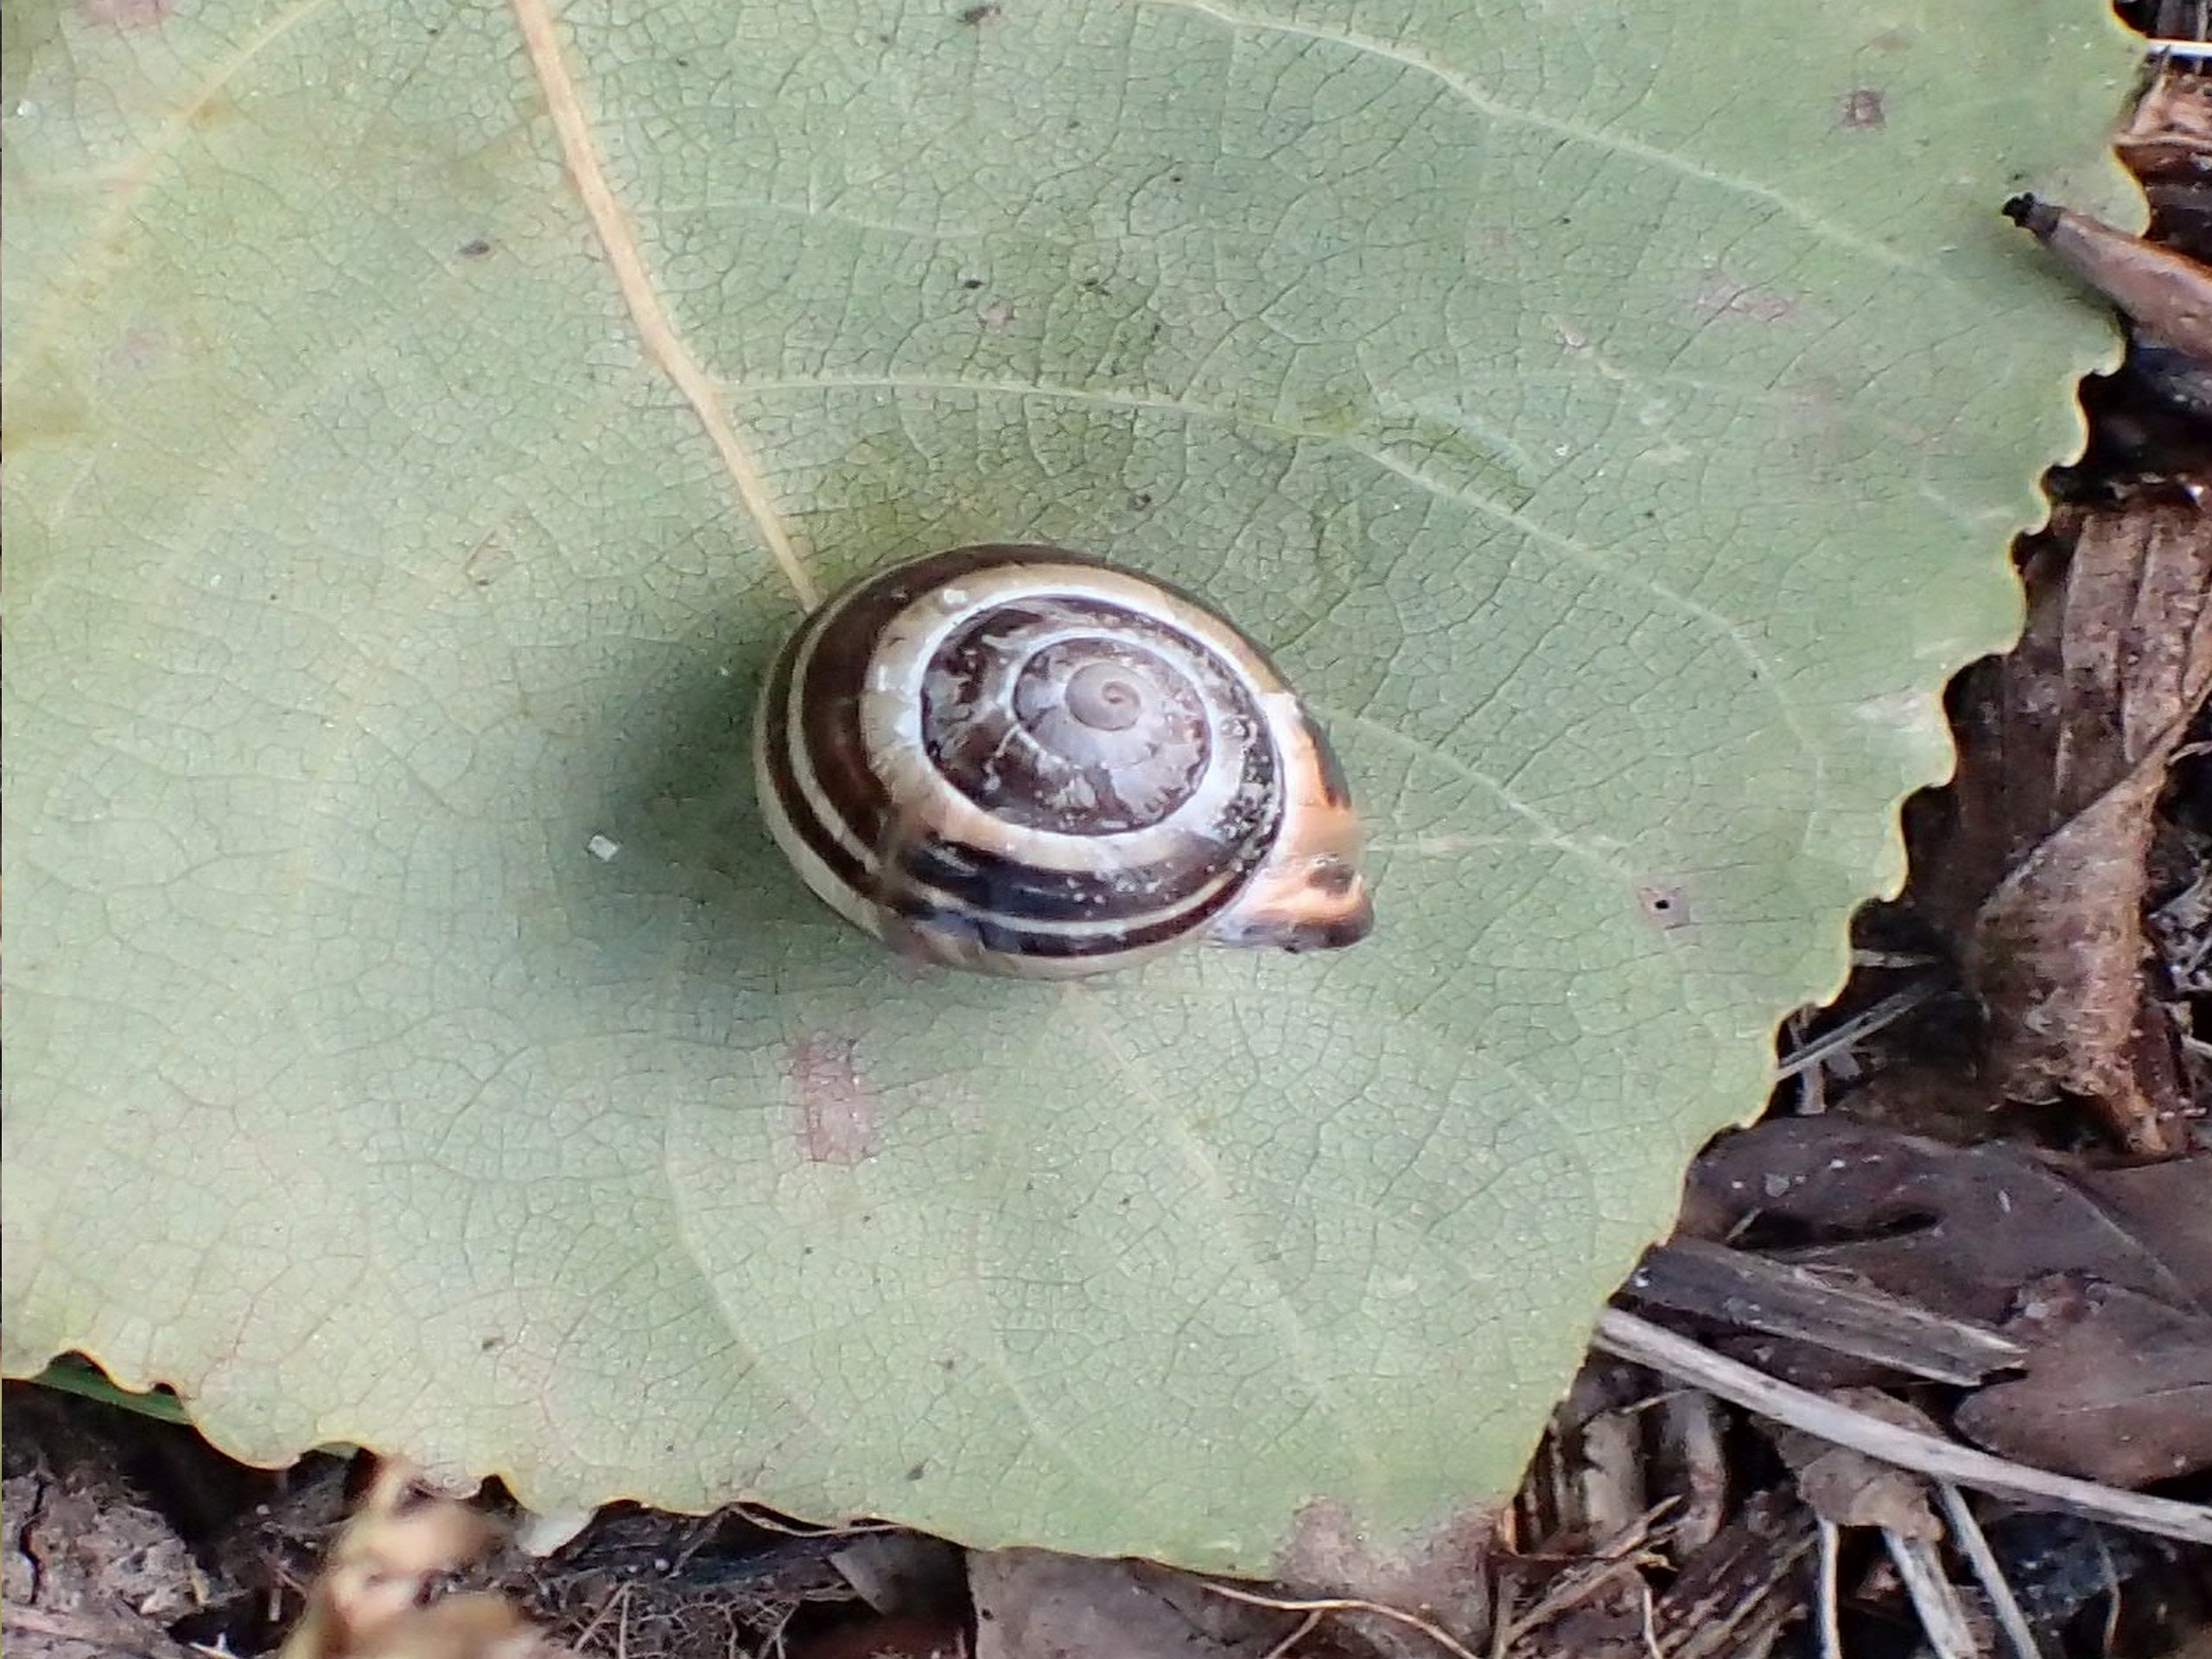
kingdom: Animalia
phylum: Mollusca
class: Gastropoda
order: Stylommatophora
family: Helicidae
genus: Cepaea
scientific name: Cepaea nemoralis
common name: Lundsnegl
